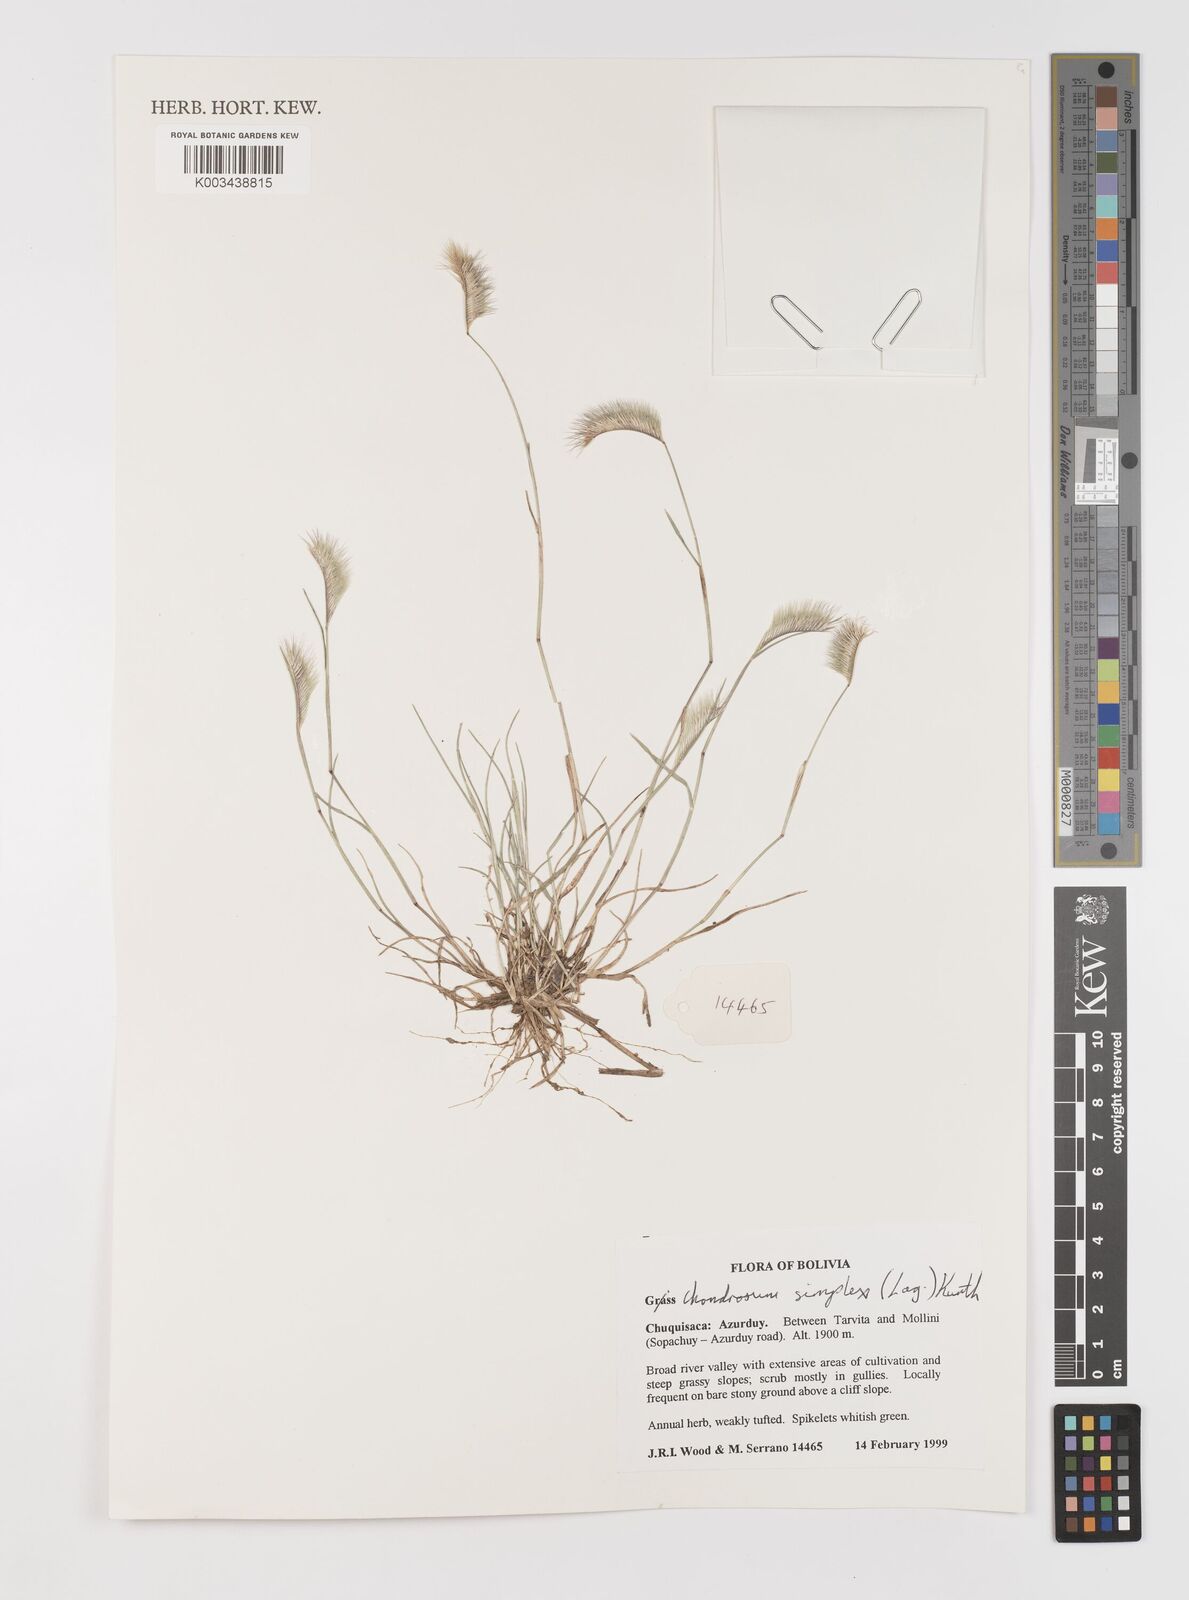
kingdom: Plantae
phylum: Tracheophyta
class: Liliopsida
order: Poales
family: Poaceae
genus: Bouteloua
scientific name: Bouteloua simplex
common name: Mat grama
